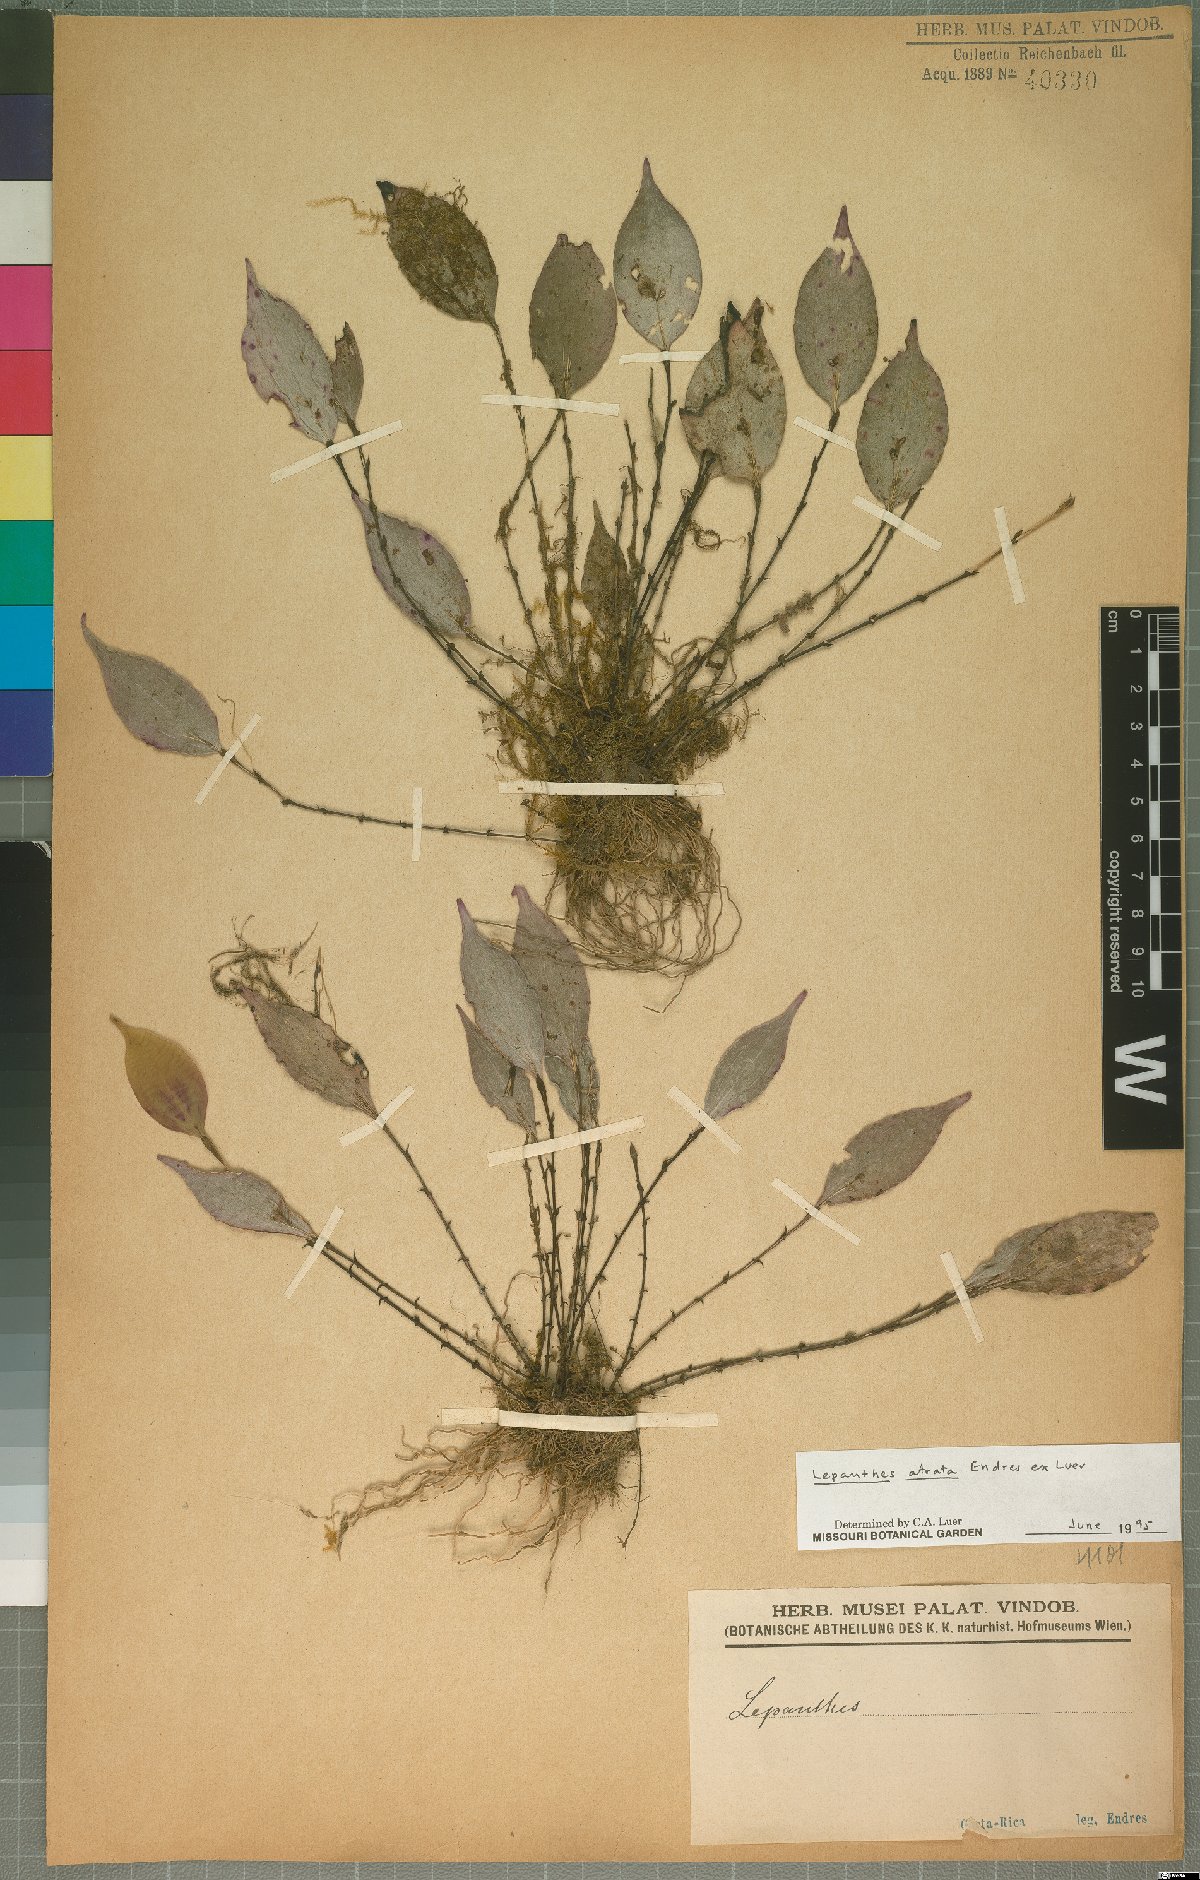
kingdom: Plantae
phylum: Tracheophyta
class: Liliopsida
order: Asparagales
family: Orchidaceae
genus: Lepanthes
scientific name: Lepanthes atrata
